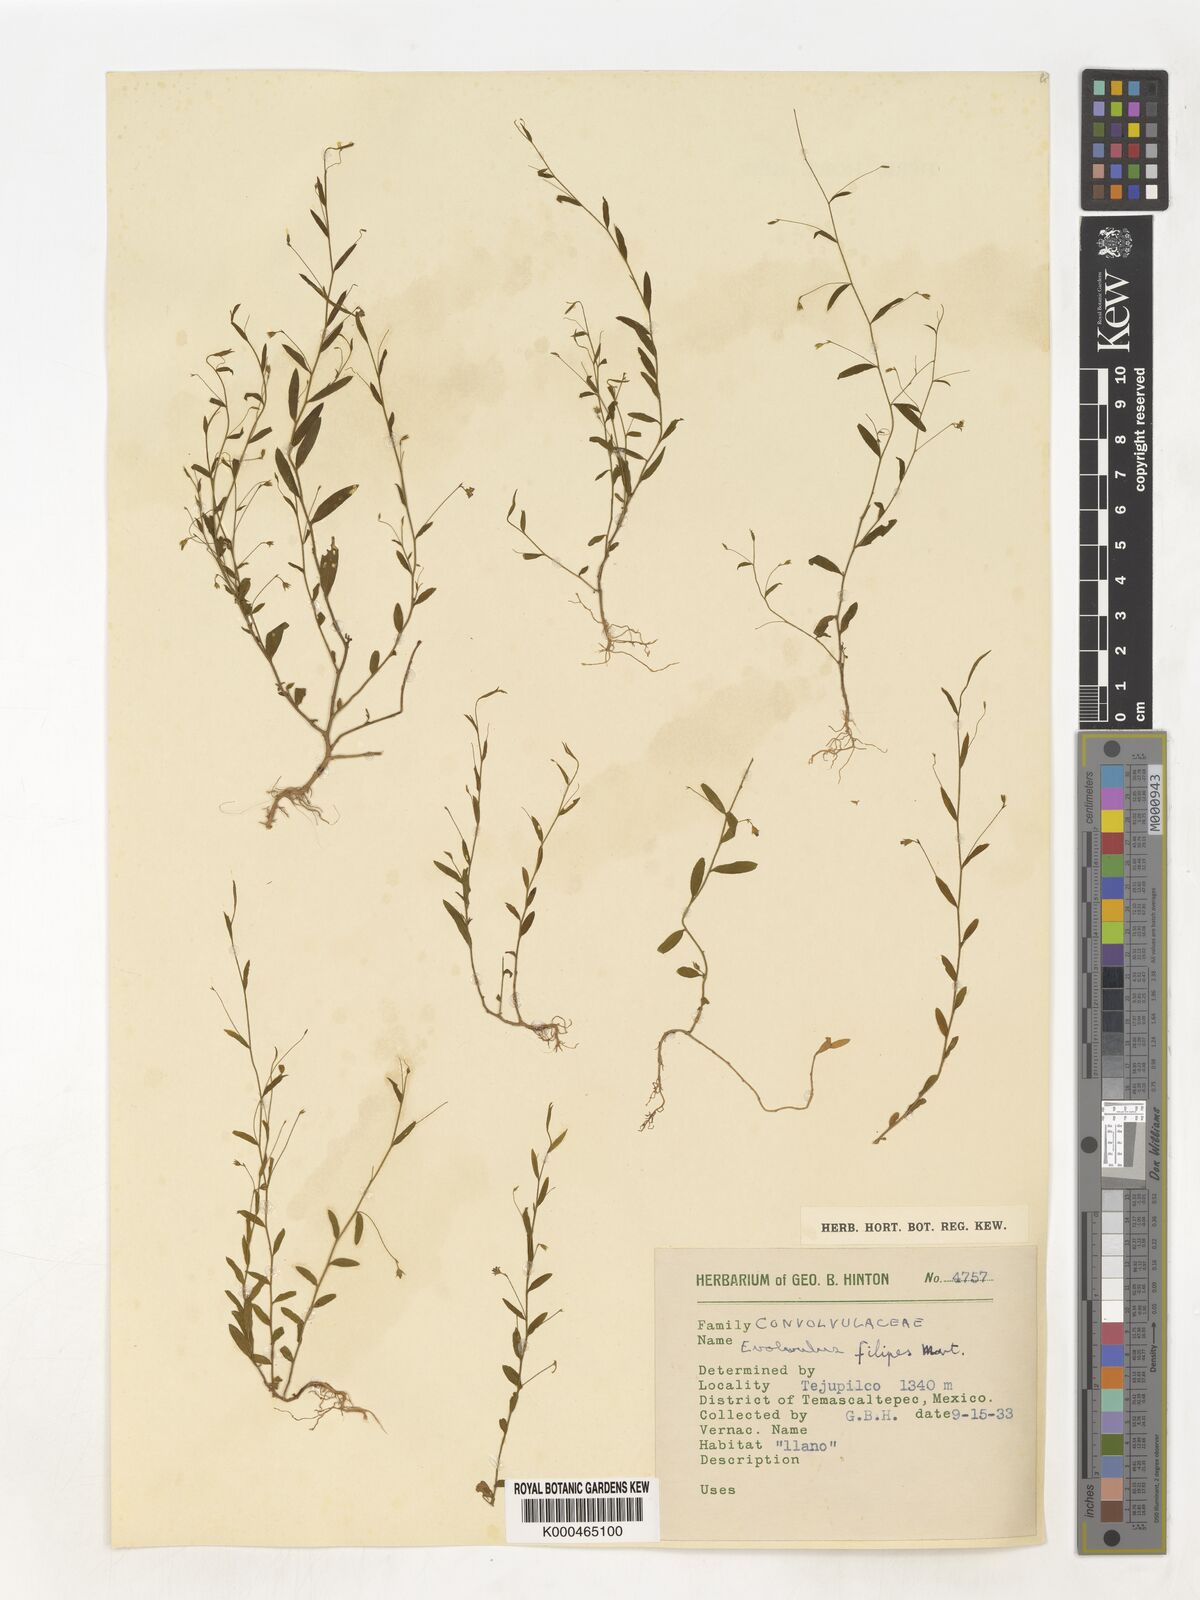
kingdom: Plantae
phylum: Tracheophyta
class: Magnoliopsida
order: Solanales
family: Convolvulaceae
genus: Evolvulus
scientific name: Evolvulus filipes
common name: Maryland dwarf morning-glory
